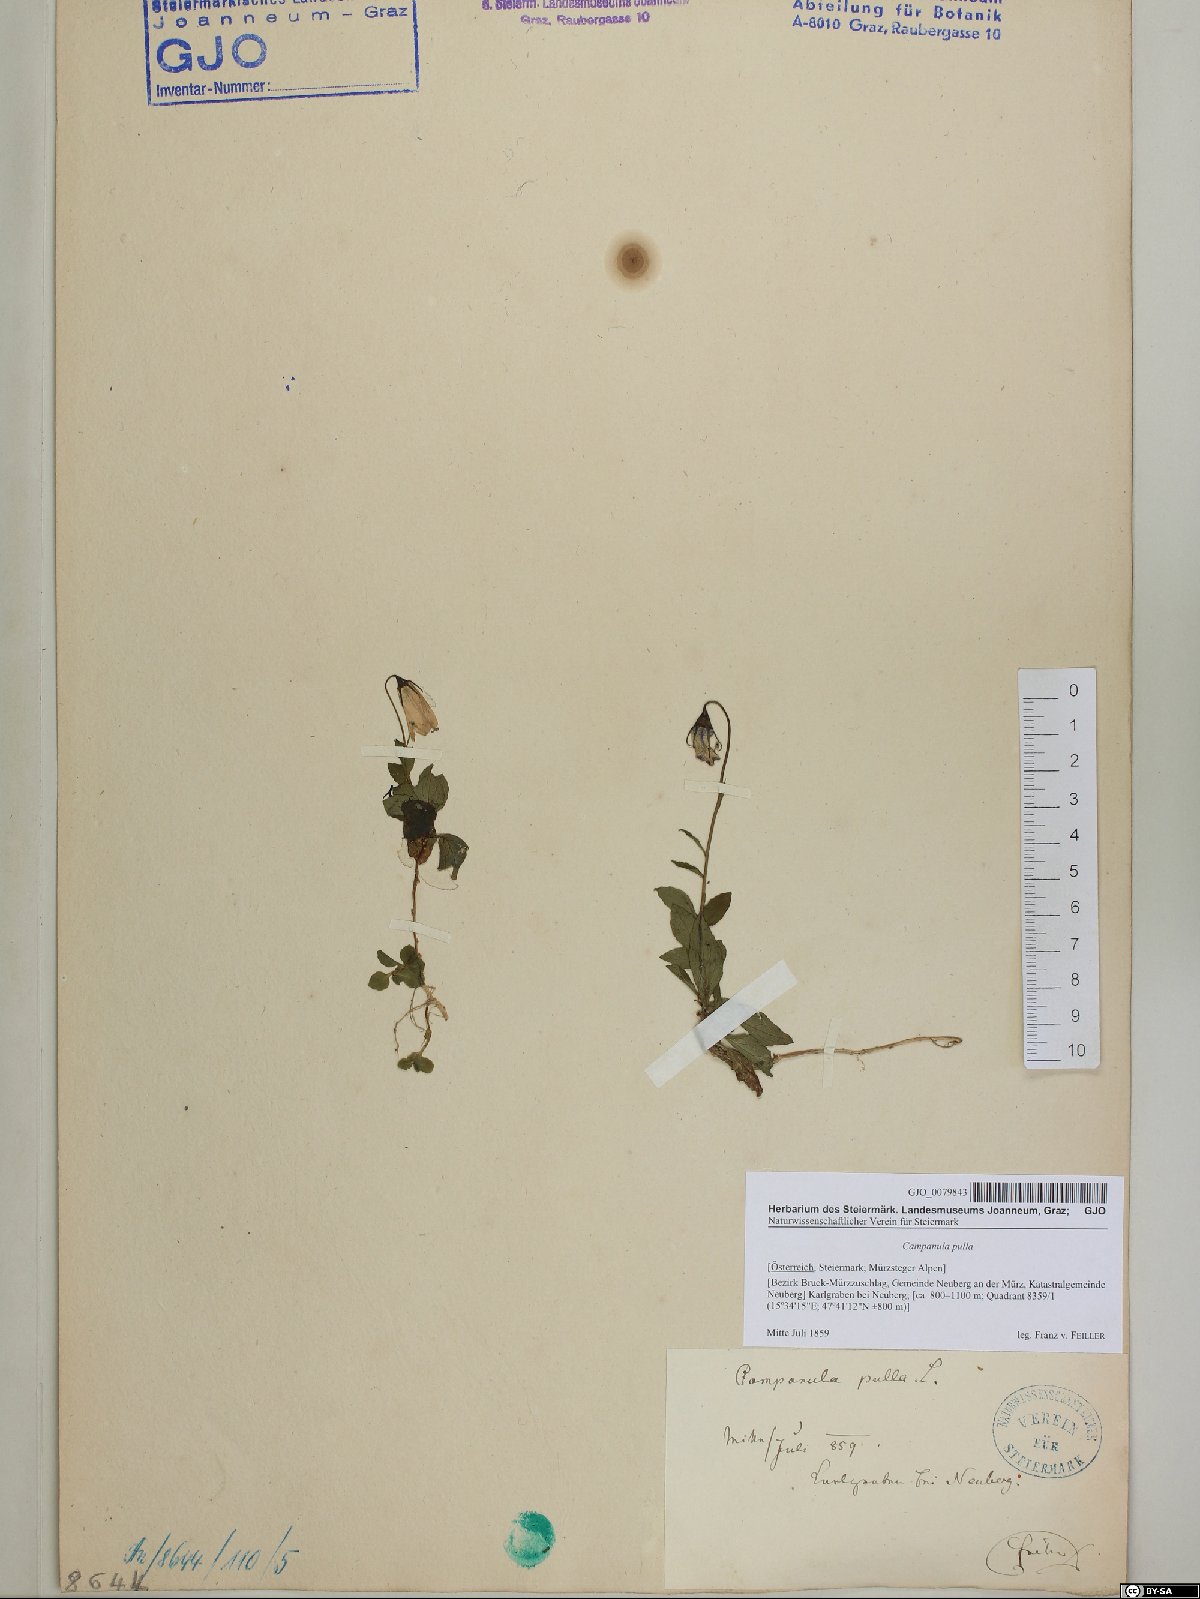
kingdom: Plantae
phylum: Tracheophyta
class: Magnoliopsida
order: Asterales
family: Campanulaceae
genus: Campanula
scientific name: Campanula pulla
